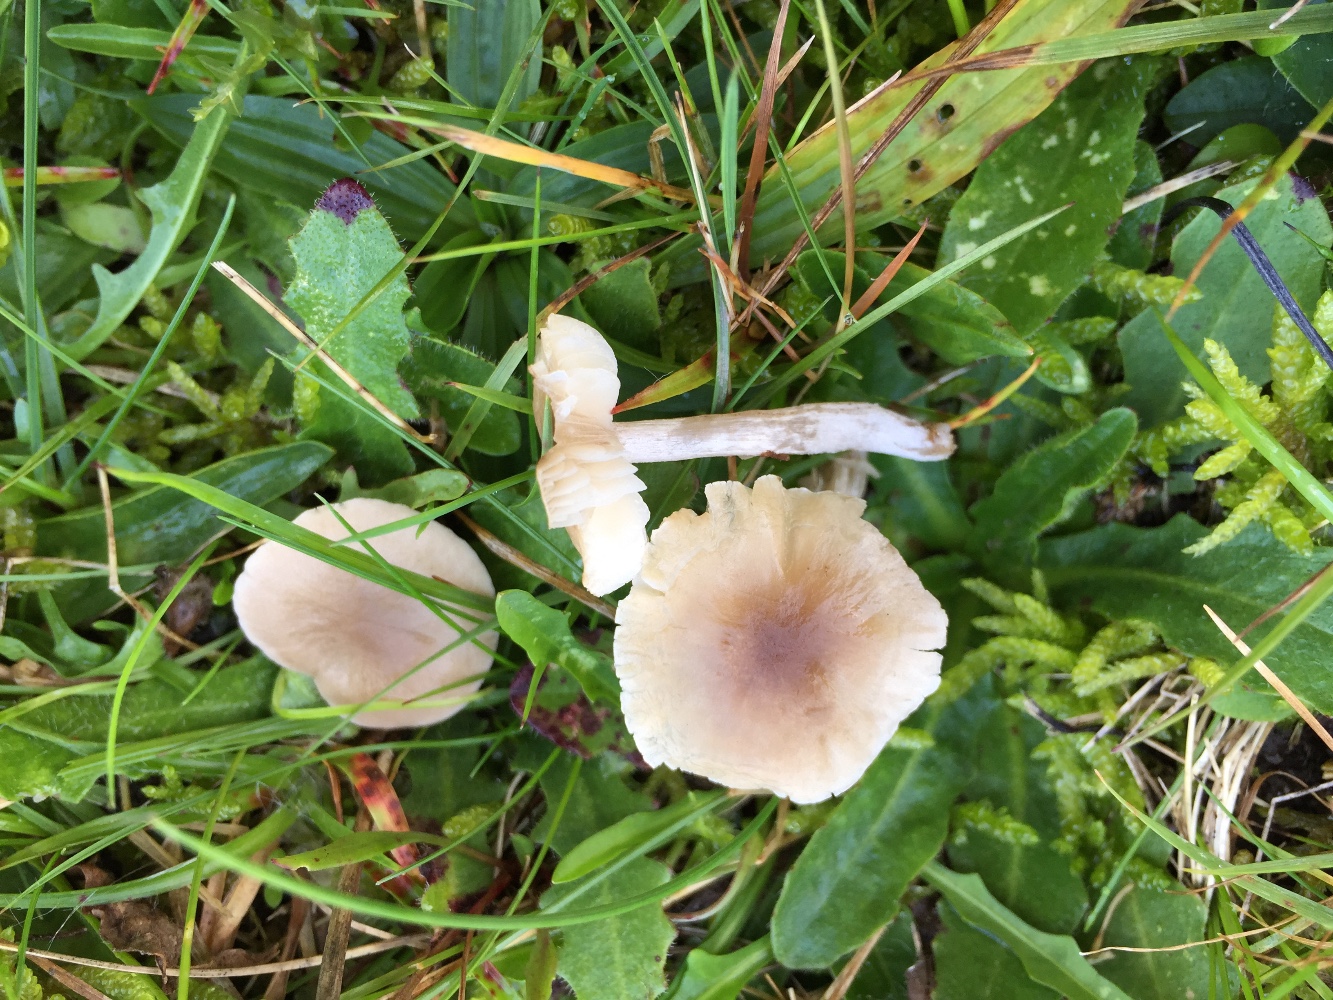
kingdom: Fungi
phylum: Basidiomycota
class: Agaricomycetes
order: Agaricales
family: Tricholomataceae
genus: Dermoloma
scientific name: Dermoloma cuneifolium
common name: eng-nonnehat
